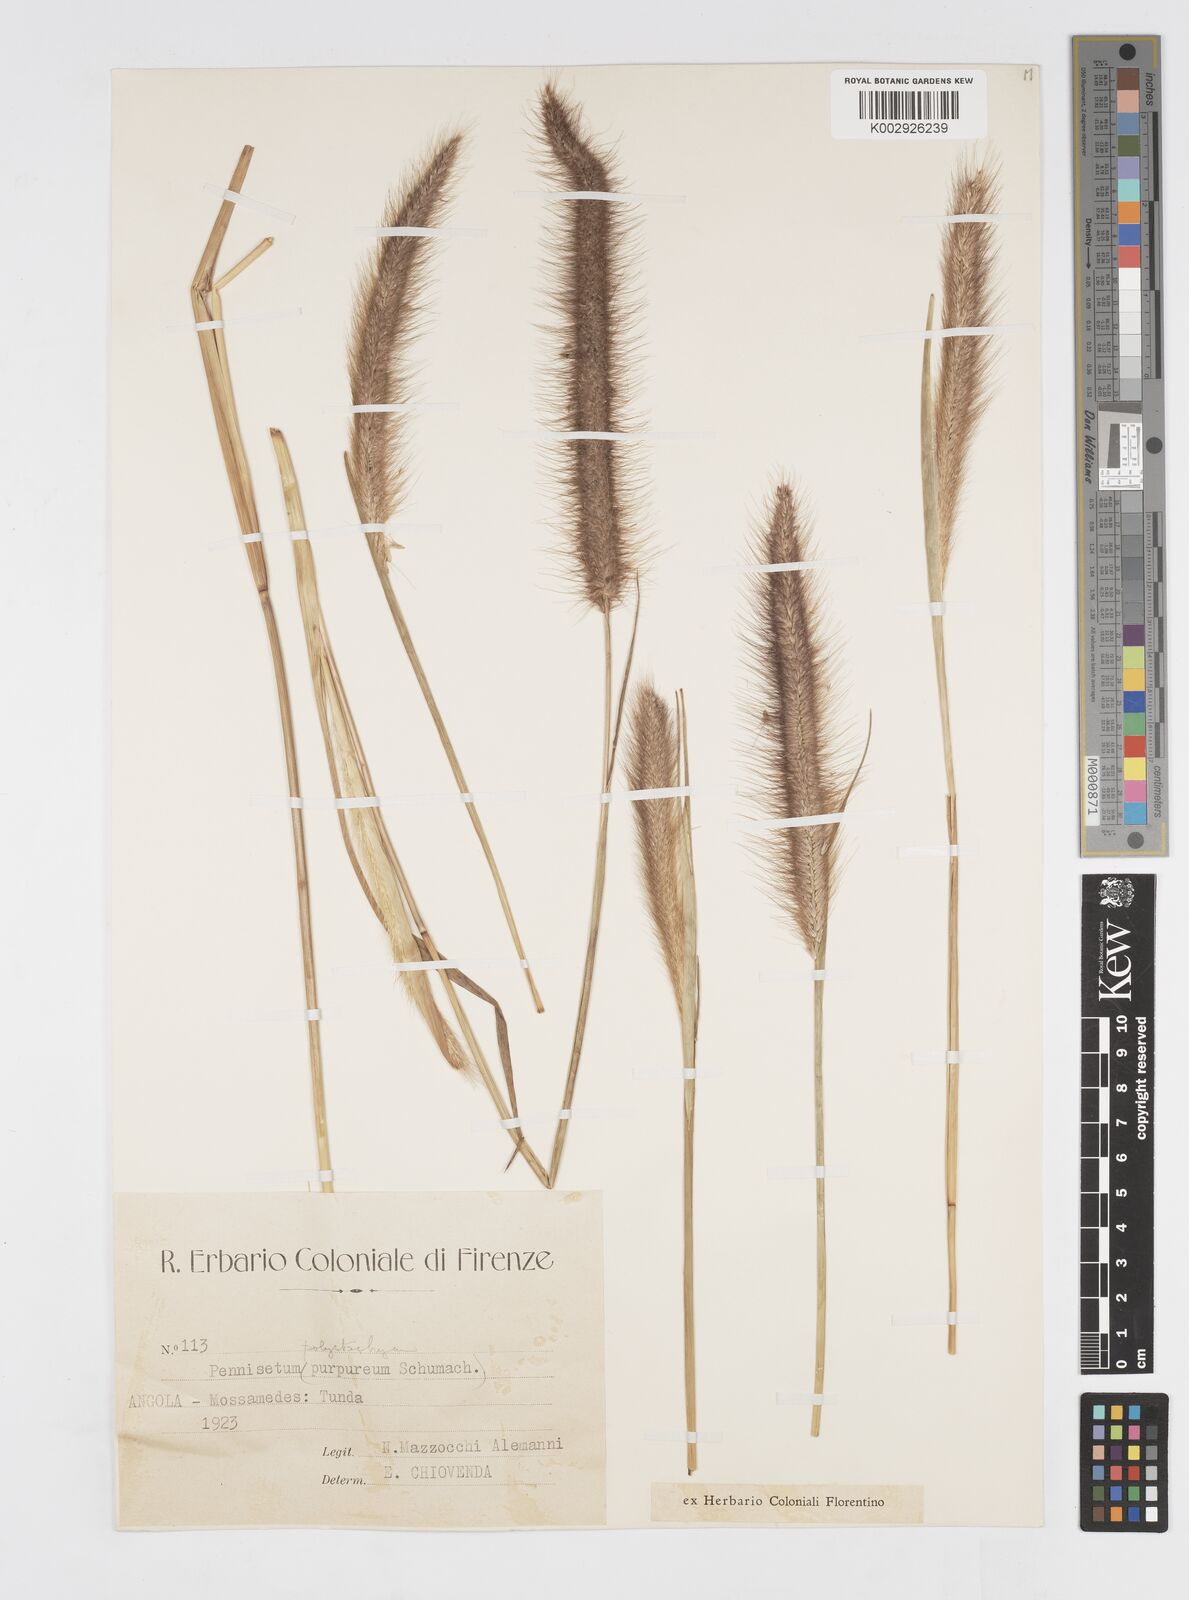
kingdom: Plantae
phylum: Tracheophyta
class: Liliopsida
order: Poales
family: Poaceae
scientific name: Poaceae
